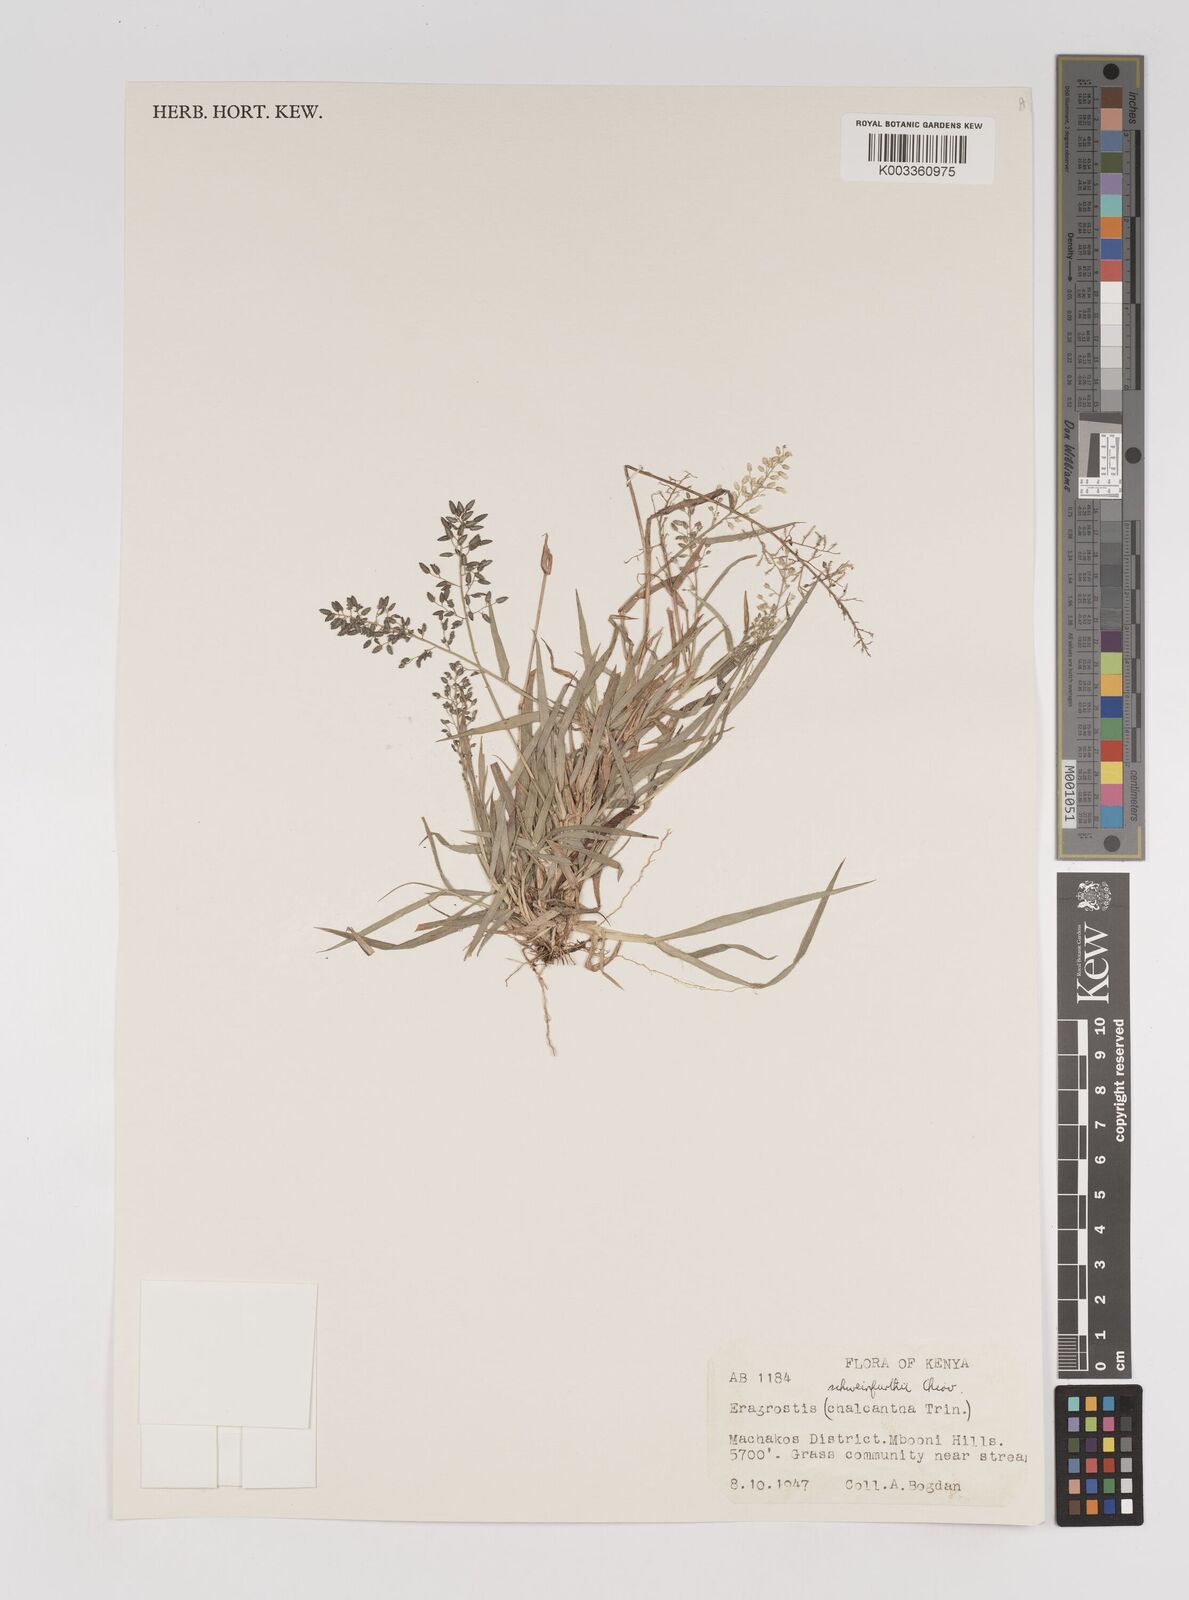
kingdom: Plantae
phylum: Tracheophyta
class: Liliopsida
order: Poales
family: Poaceae
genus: Eragrostis
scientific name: Eragrostis schweinfurthii
